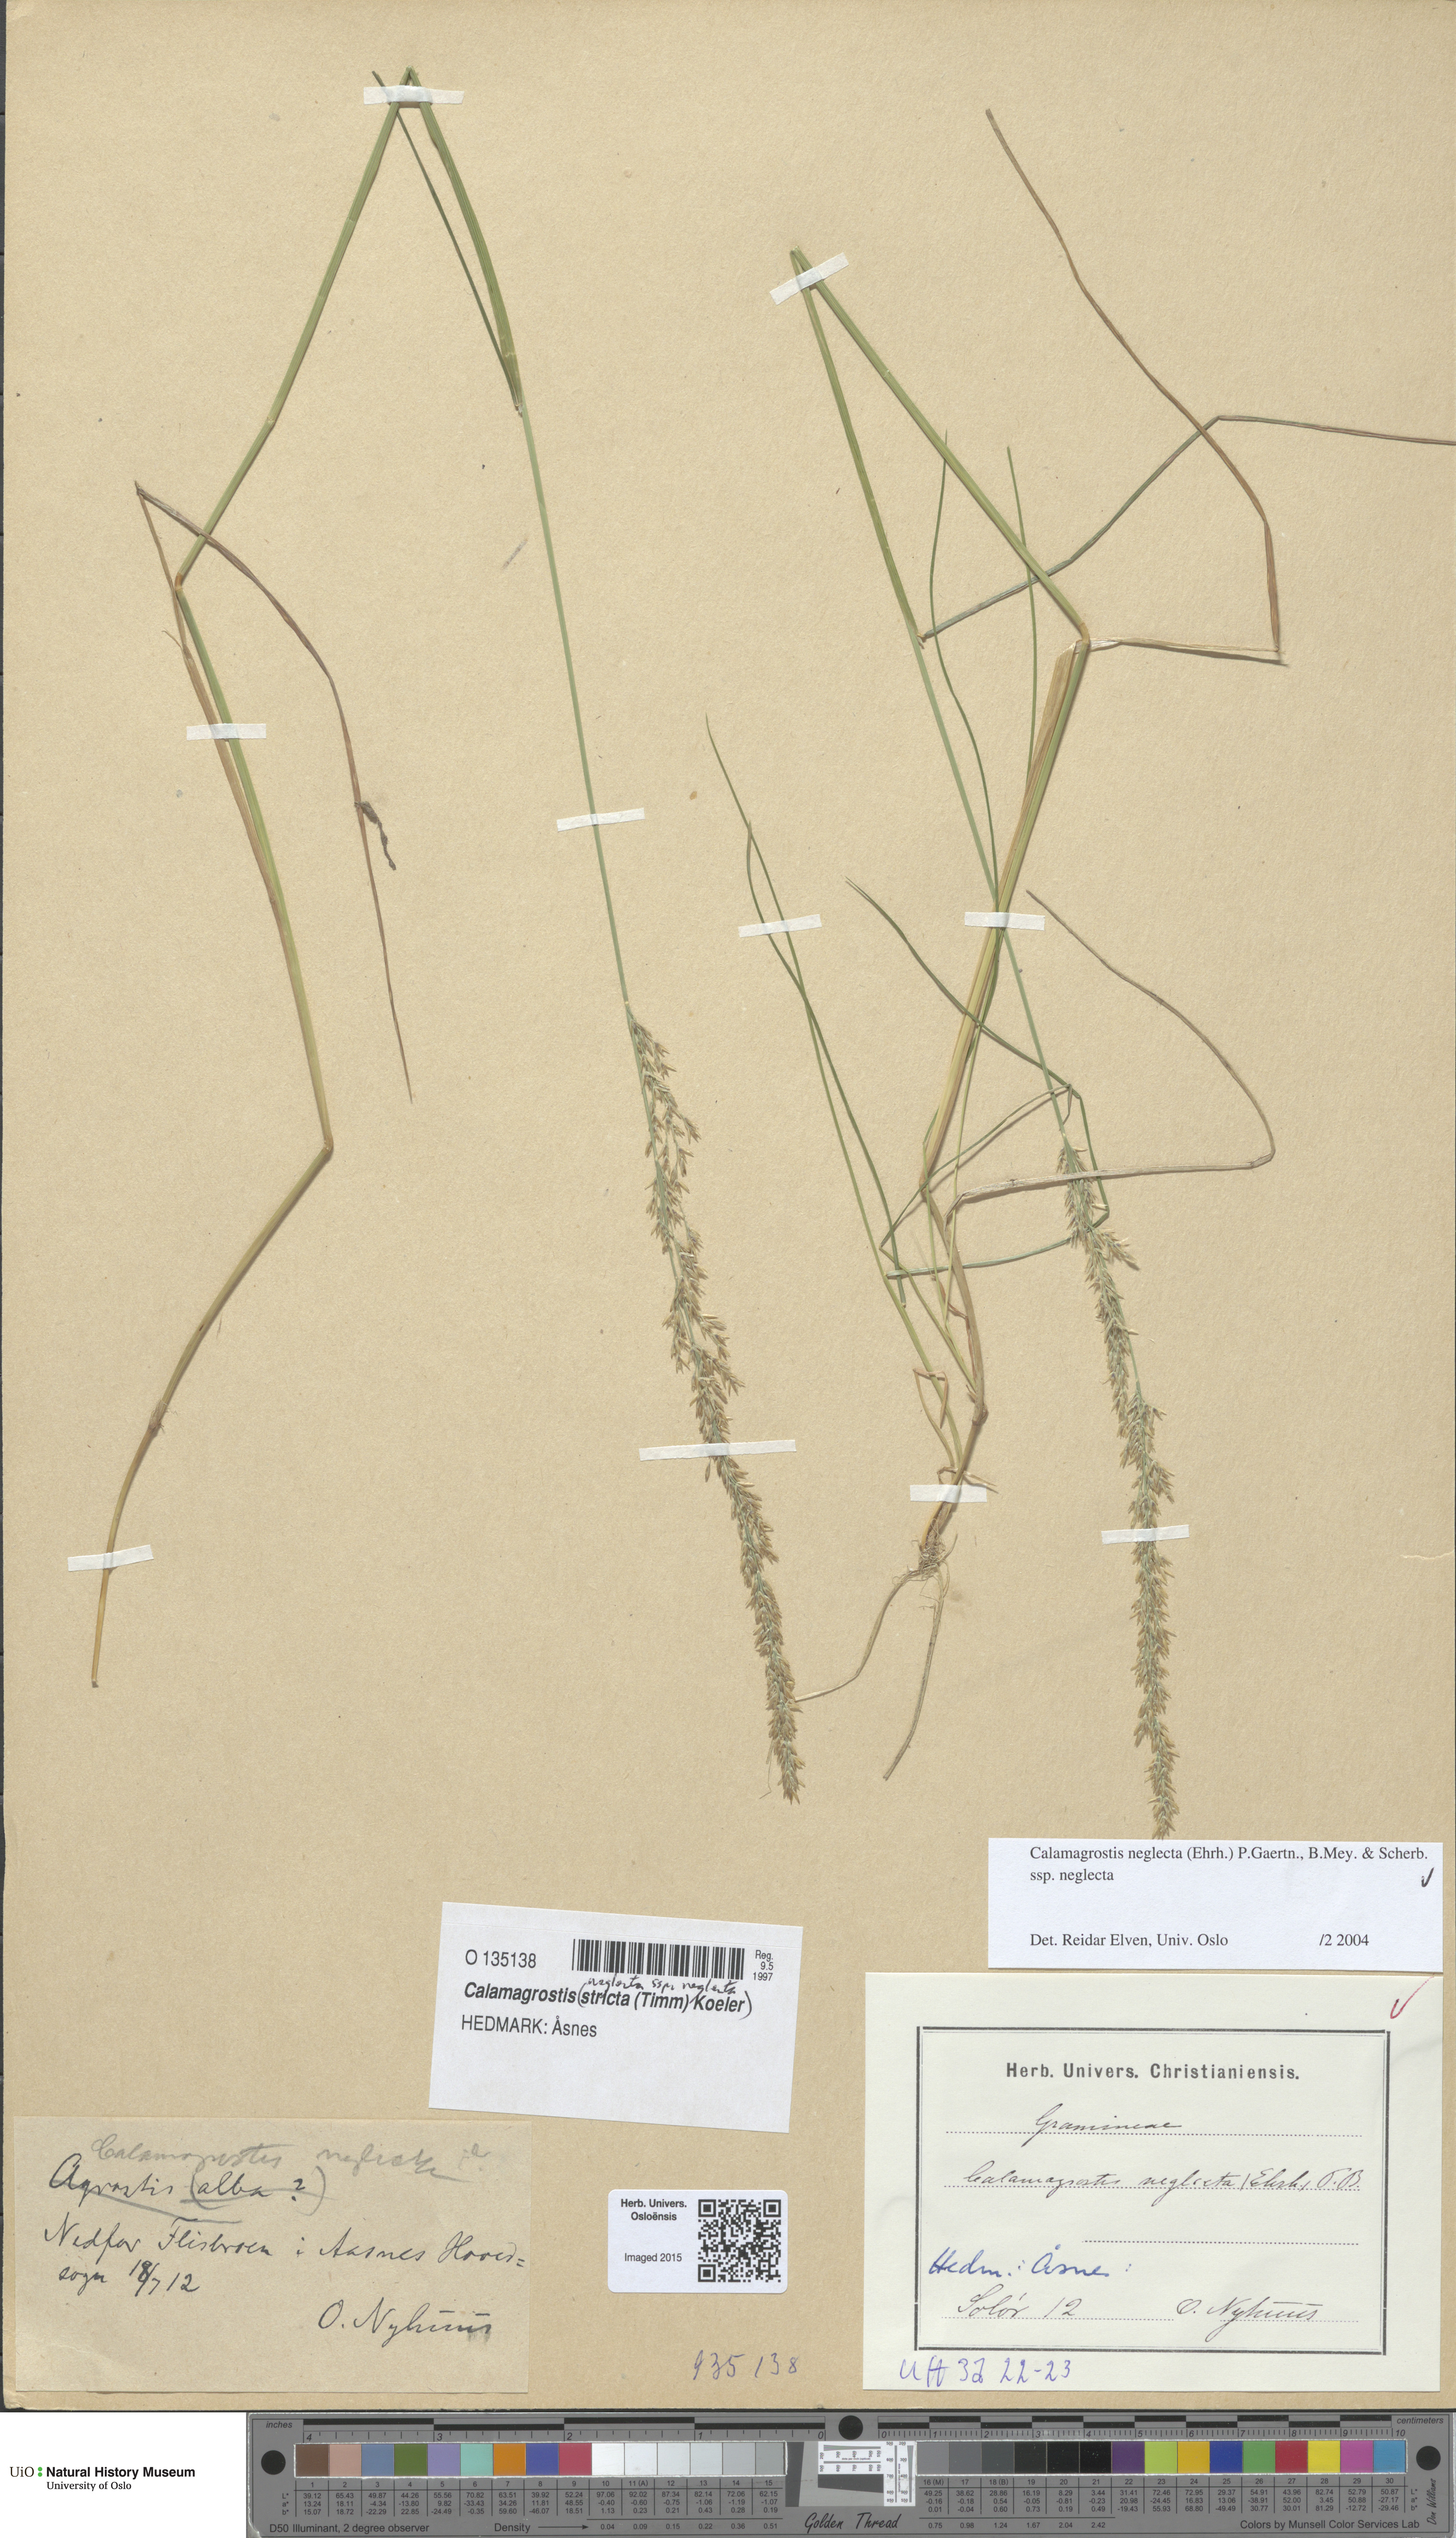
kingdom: Plantae
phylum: Tracheophyta
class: Liliopsida
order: Poales
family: Poaceae
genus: Achnatherum
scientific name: Achnatherum calamagrostis
